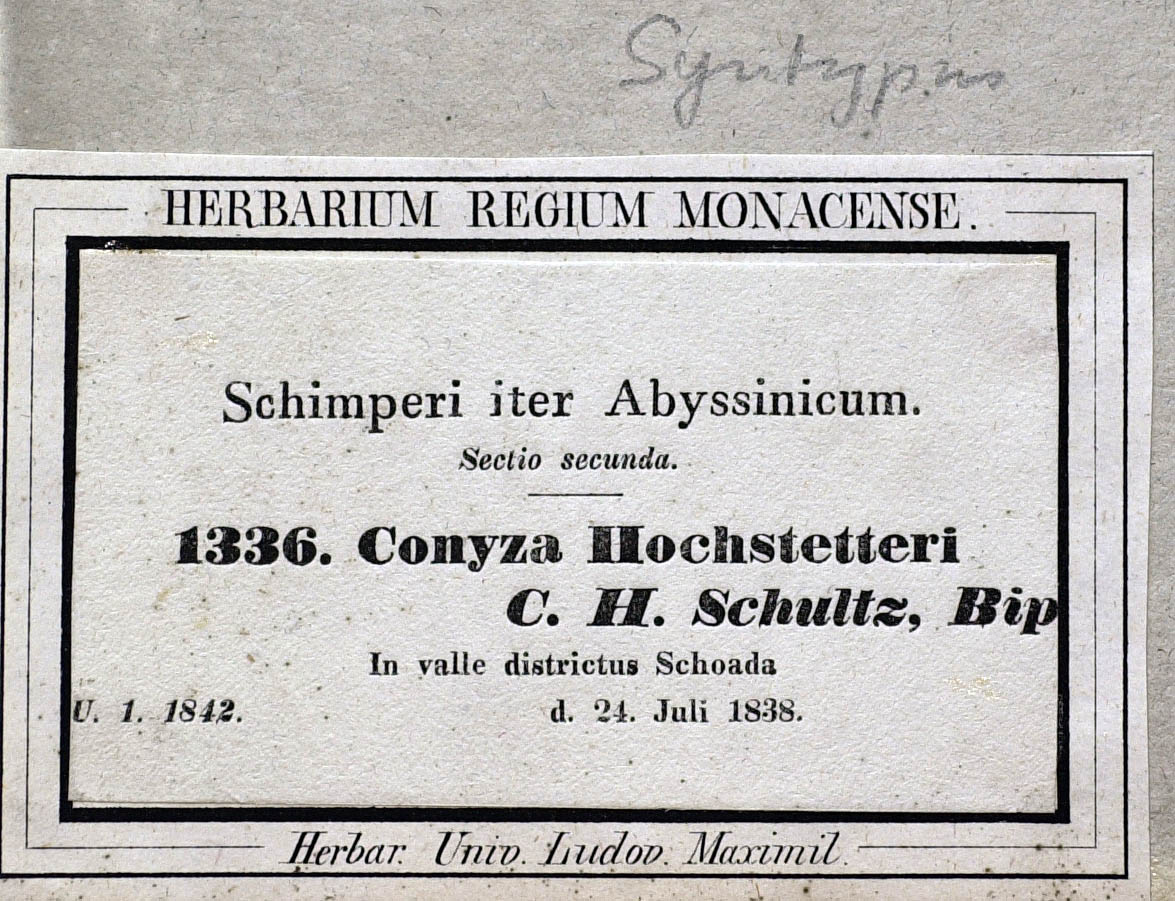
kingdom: Plantae
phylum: Tracheophyta
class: Magnoliopsida
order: Asterales
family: Asteraceae
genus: Eschenbachia
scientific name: Eschenbachia gouanii
